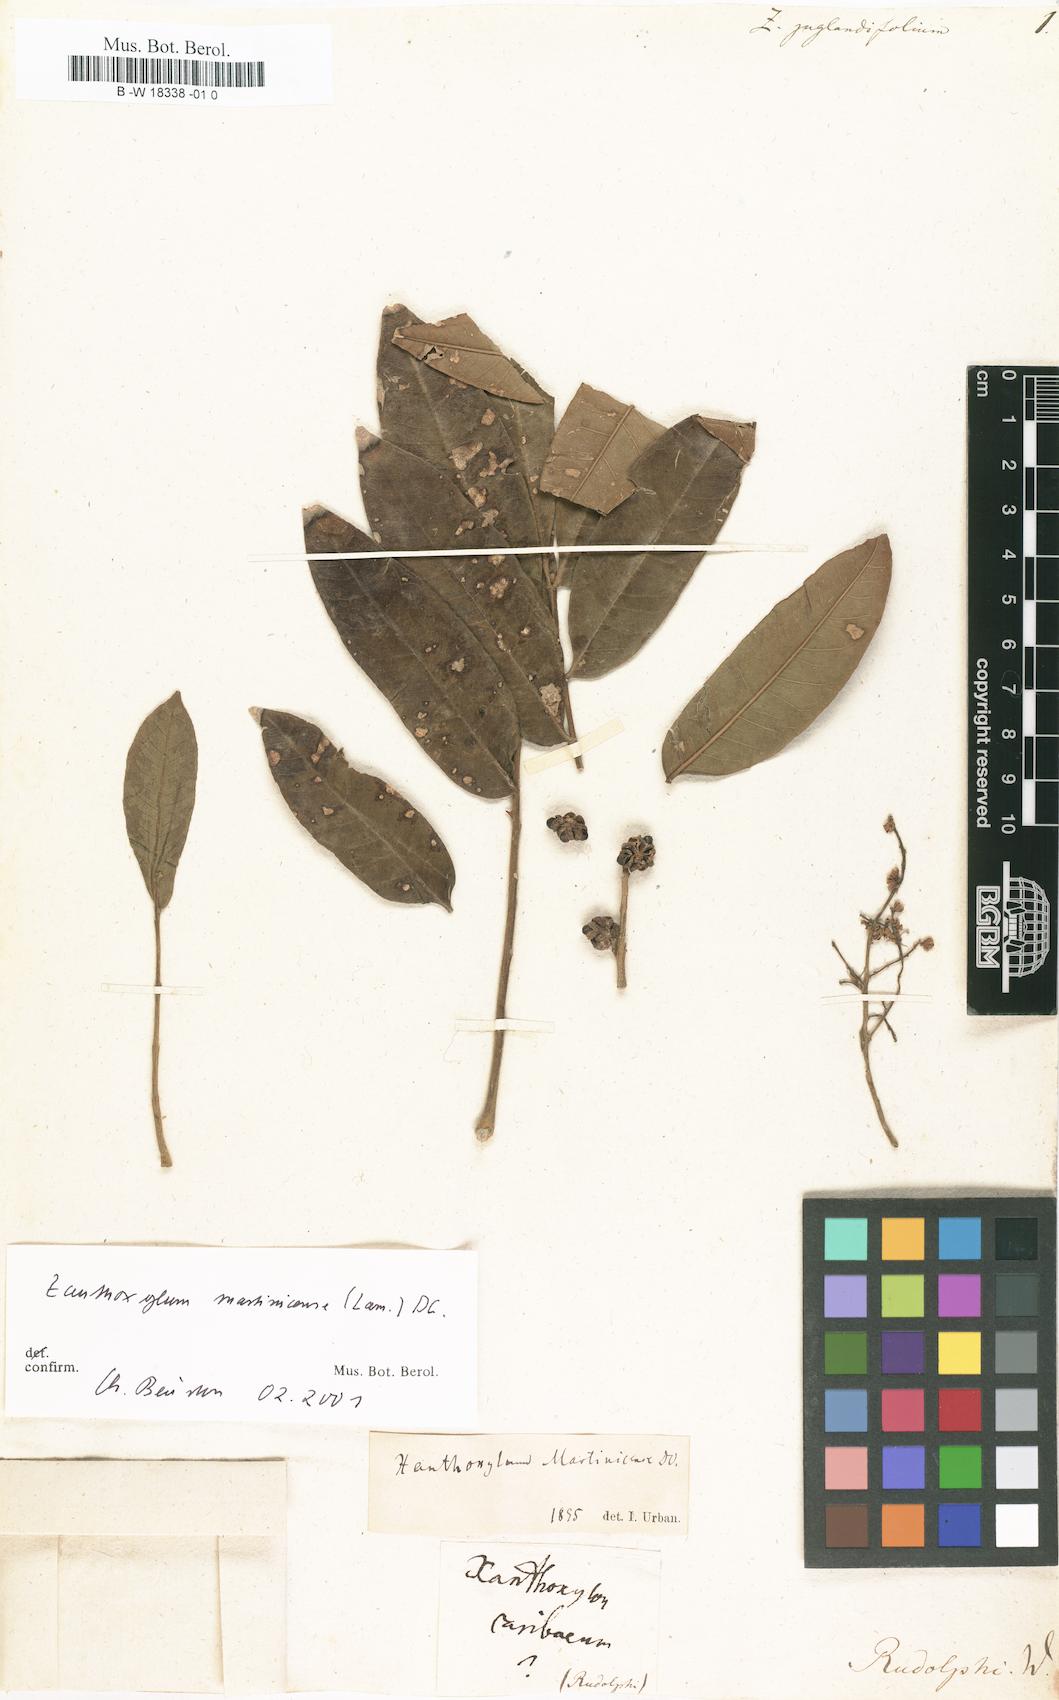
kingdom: Plantae
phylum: Tracheophyta
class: Magnoliopsida
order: Sapindales
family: Rutaceae
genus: Zanthoxylum
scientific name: Zanthoxylum martinicense
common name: Yellow prickle
